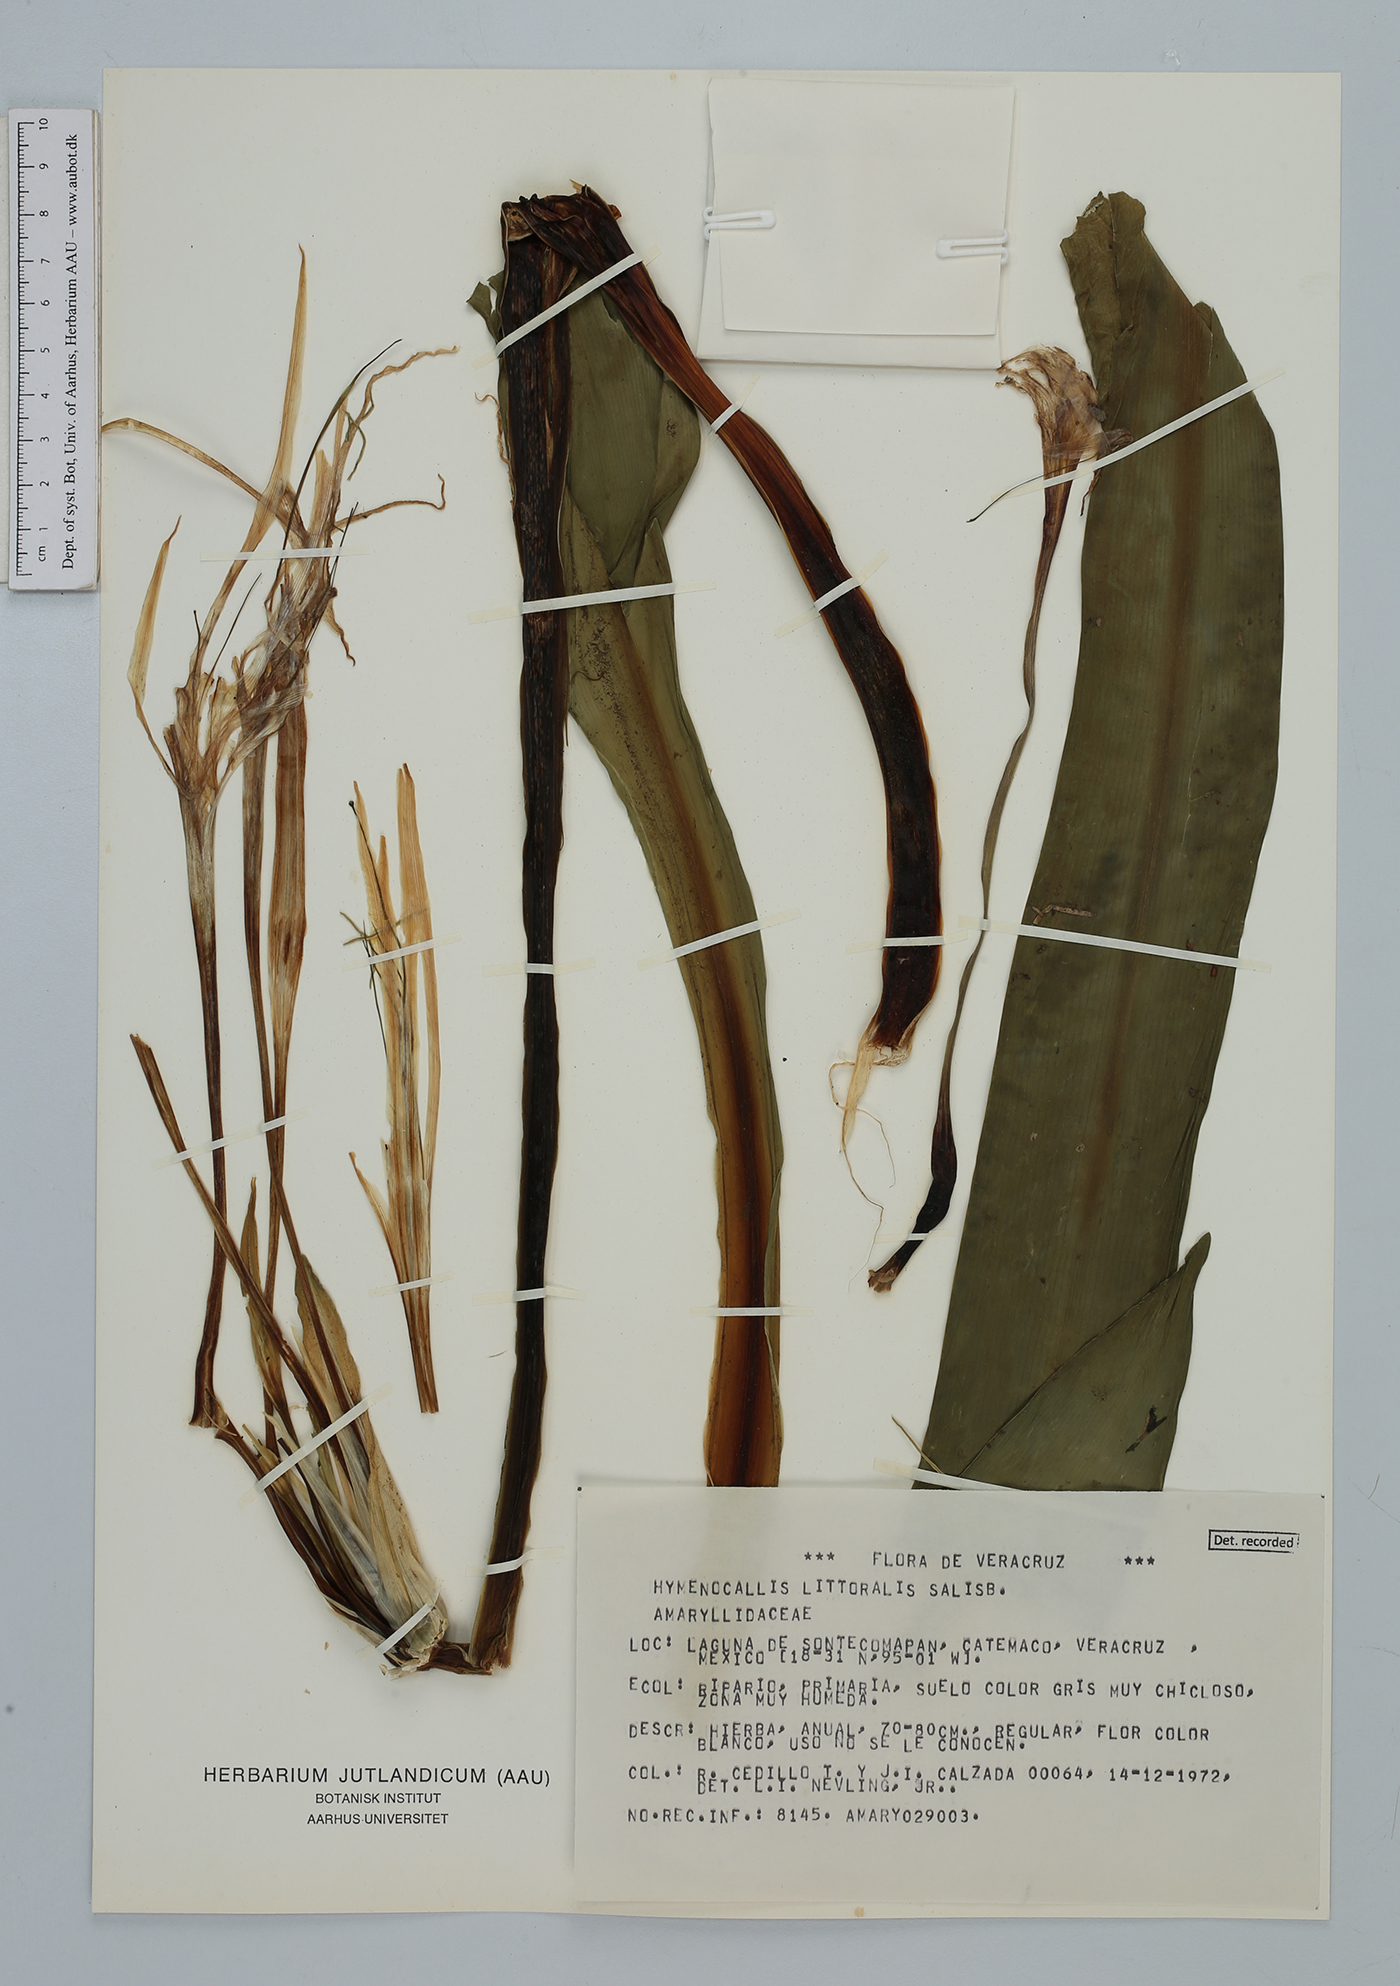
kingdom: Plantae
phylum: Tracheophyta
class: Liliopsida
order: Asparagales
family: Amaryllidaceae
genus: Hymenocallis
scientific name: Hymenocallis littoralis
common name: Beach spiderlily
